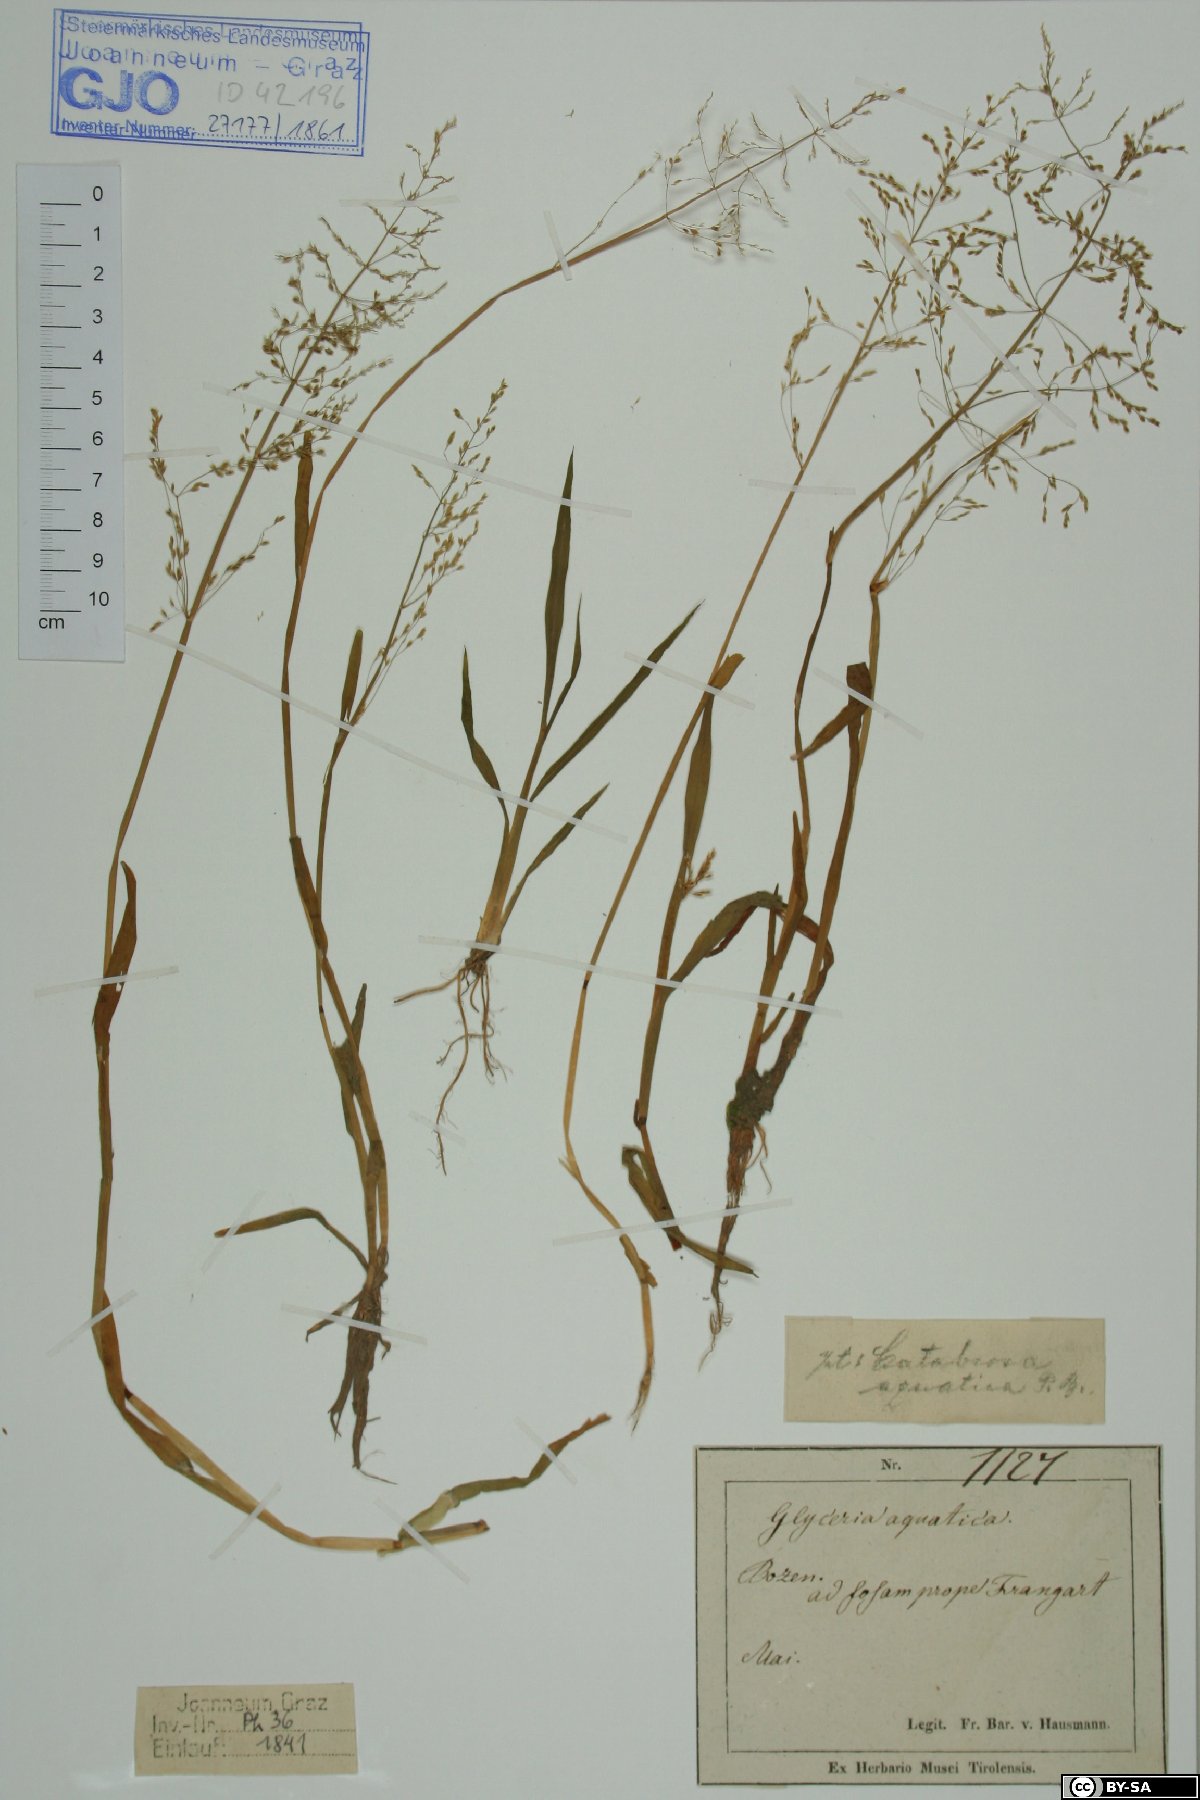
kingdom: Plantae
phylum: Tracheophyta
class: Liliopsida
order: Poales
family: Poaceae
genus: Catabrosa
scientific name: Catabrosa aquatica
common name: Whorl-grass
